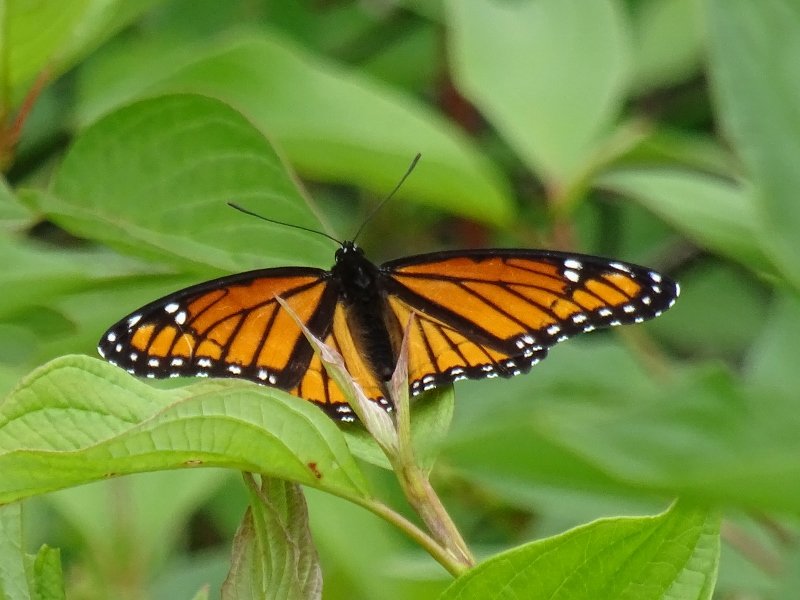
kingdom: Animalia
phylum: Arthropoda
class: Insecta
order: Lepidoptera
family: Nymphalidae
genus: Limenitis
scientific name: Limenitis archippus
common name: Viceroy
